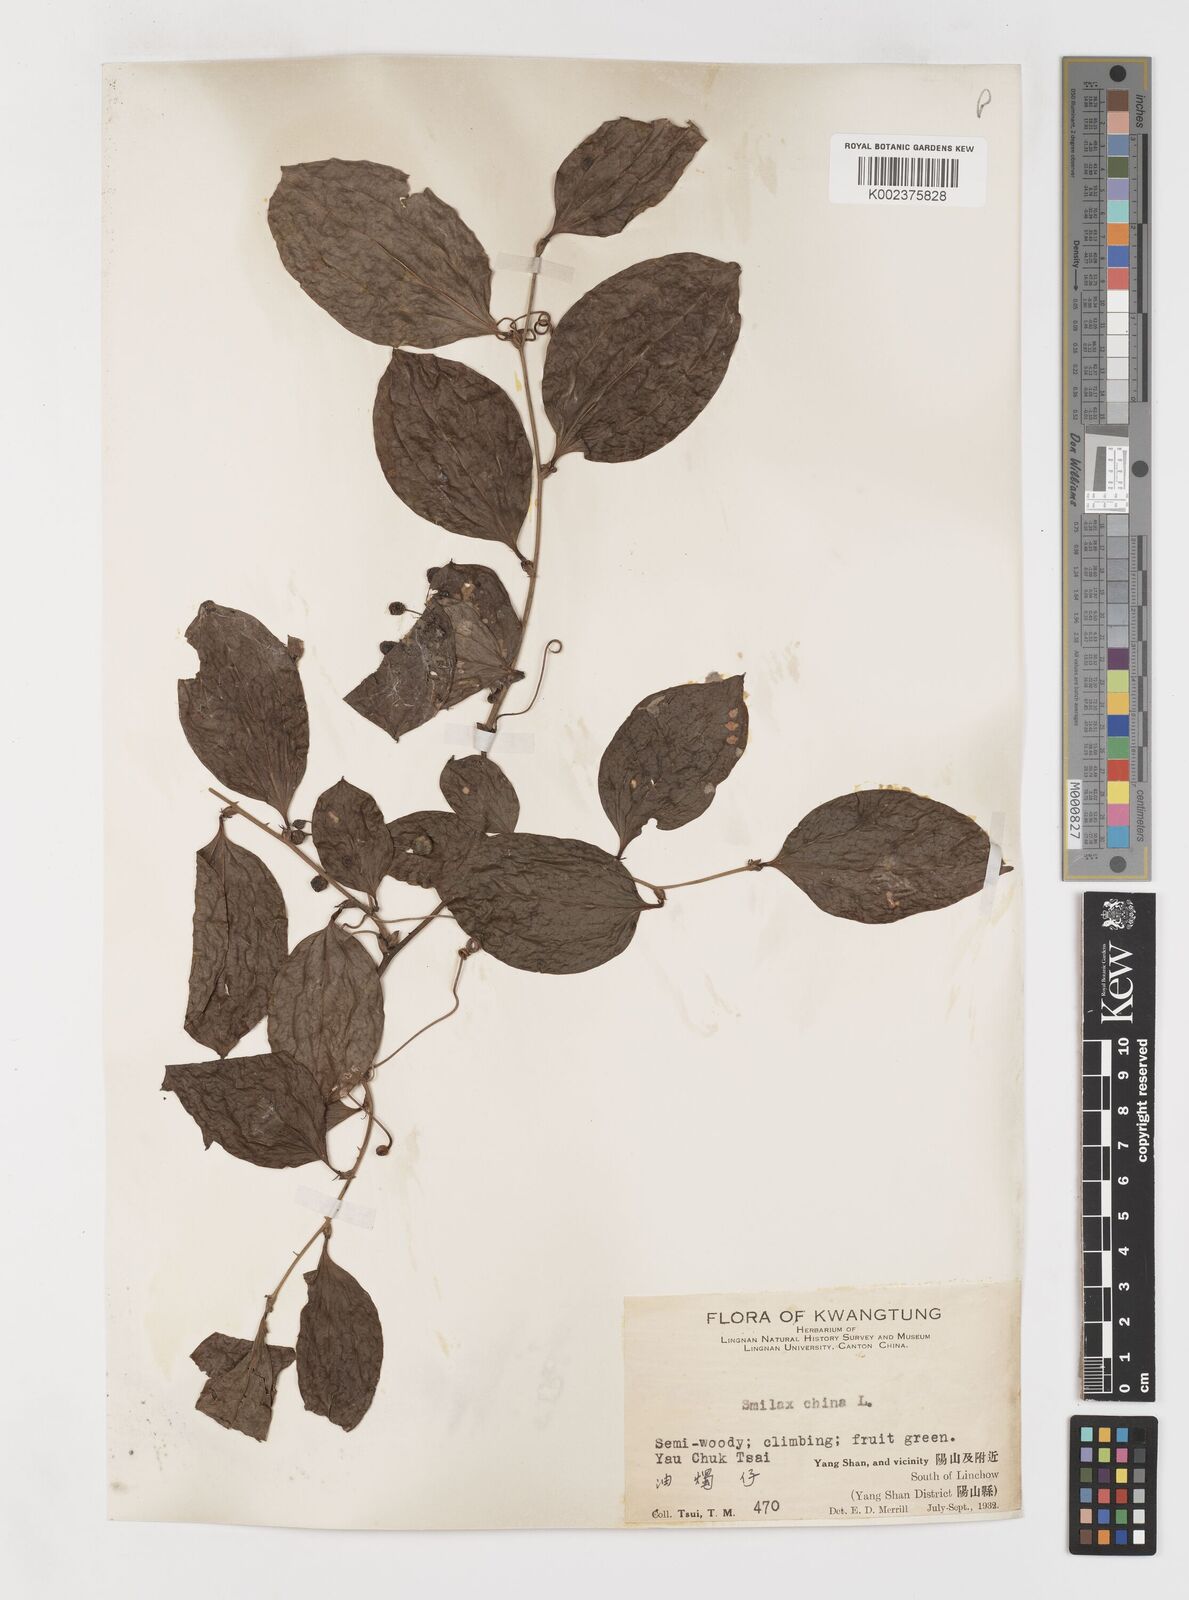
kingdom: Plantae
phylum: Tracheophyta
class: Liliopsida
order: Liliales
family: Smilacaceae
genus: Smilax
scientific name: Smilax china
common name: Chinaroot
